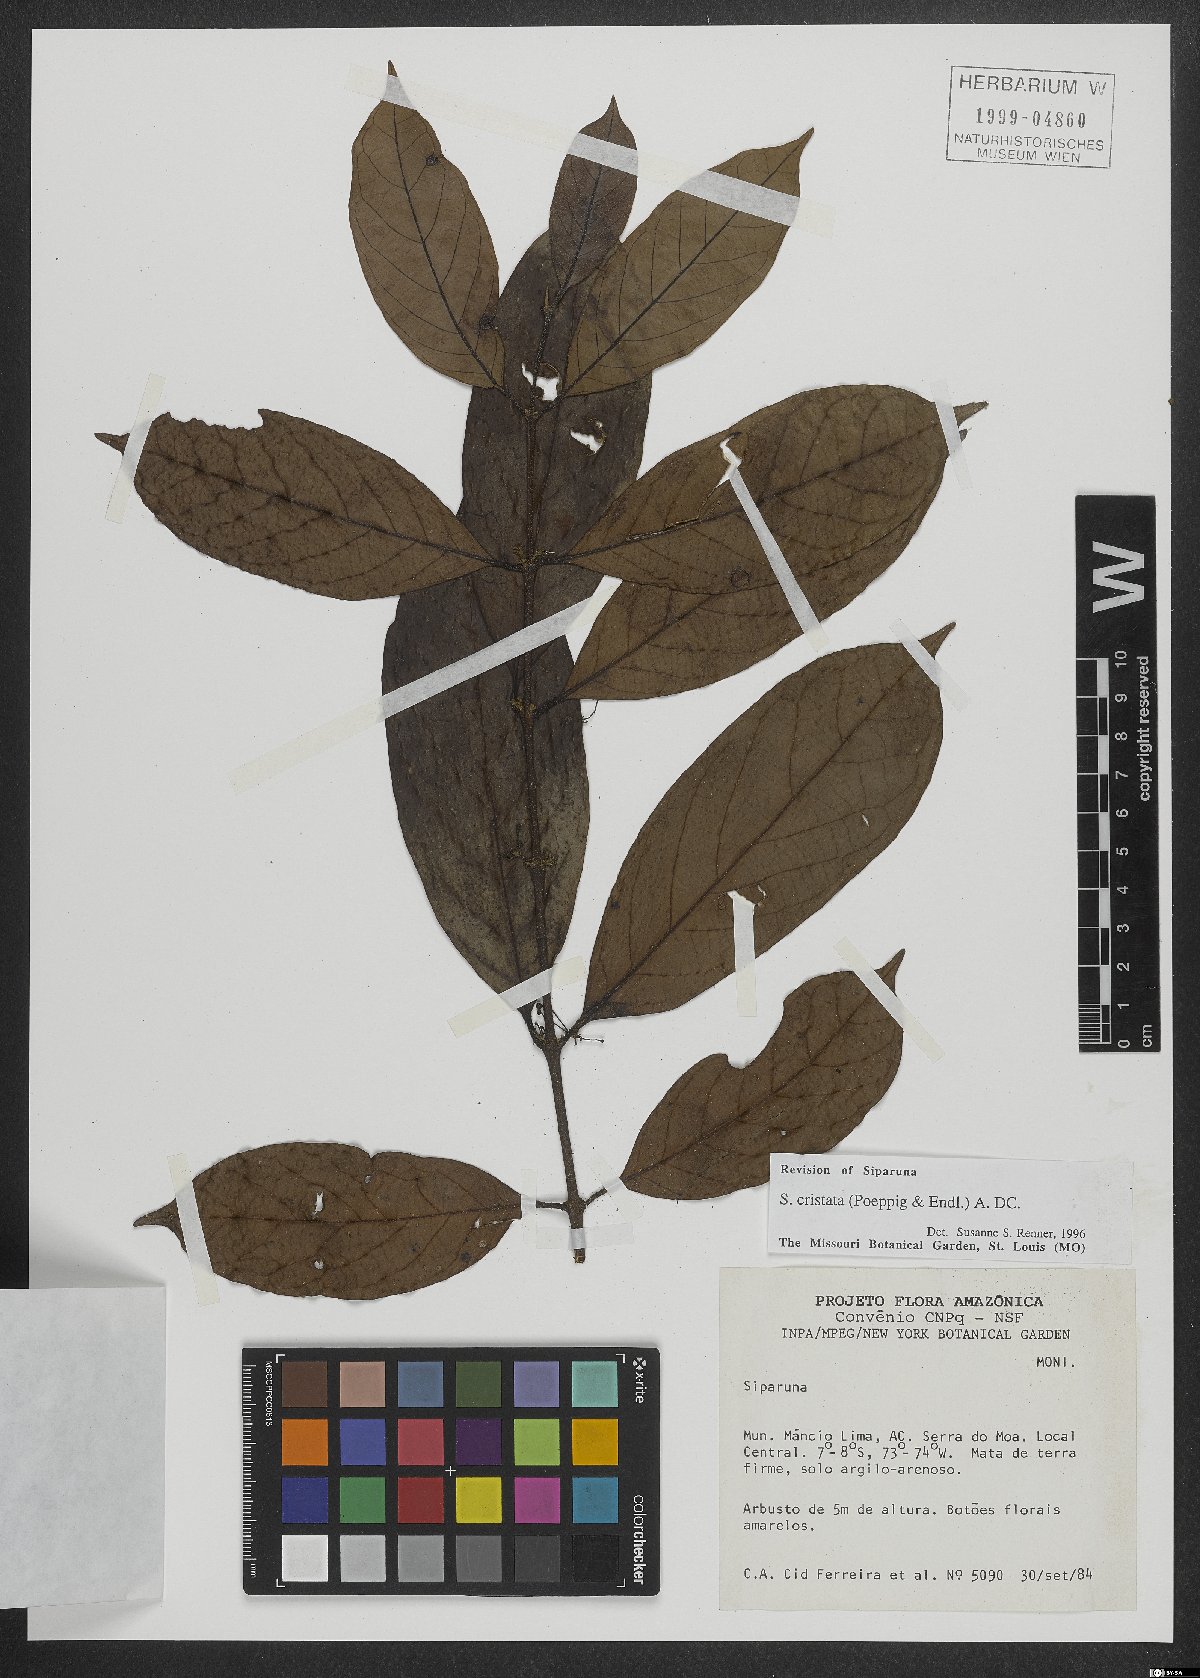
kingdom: Plantae
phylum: Tracheophyta
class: Magnoliopsida
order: Laurales
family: Siparunaceae
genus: Siparuna
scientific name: Siparuna cristata
